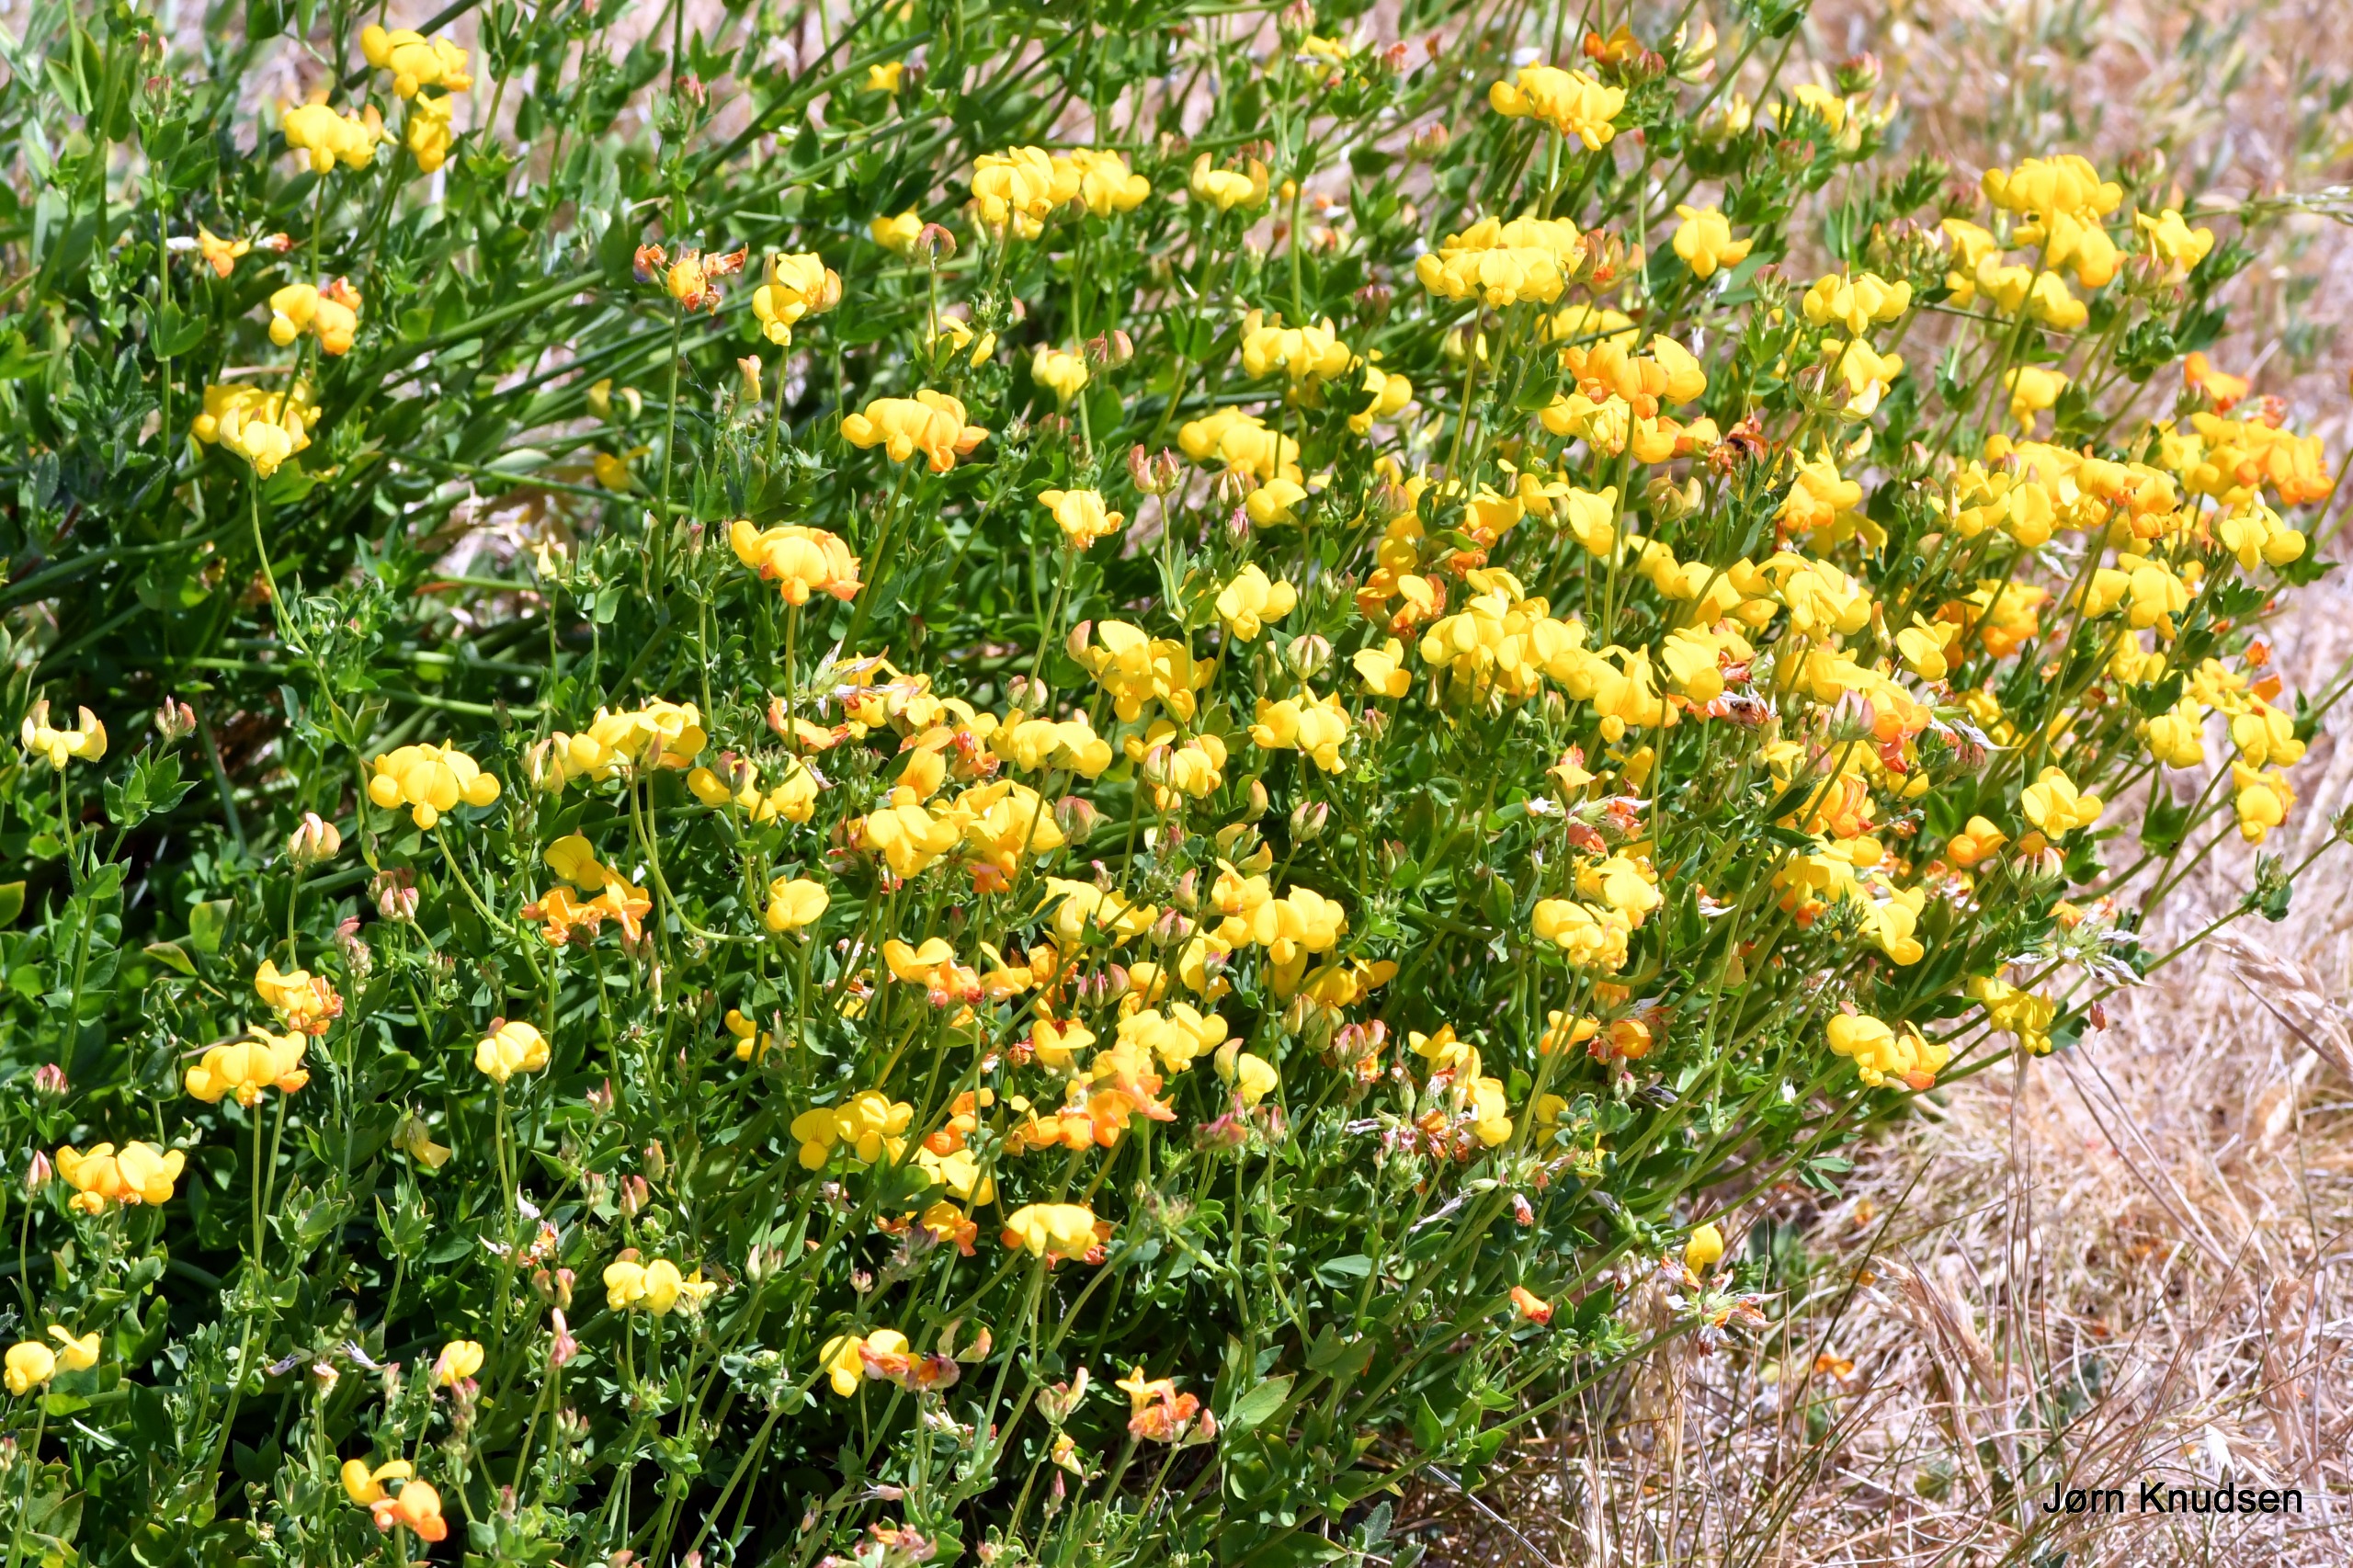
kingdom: Plantae
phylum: Tracheophyta
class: Magnoliopsida
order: Fabales
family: Fabaceae
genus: Lotus
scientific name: Lotus corniculatus
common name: Almindelig kællingetand
